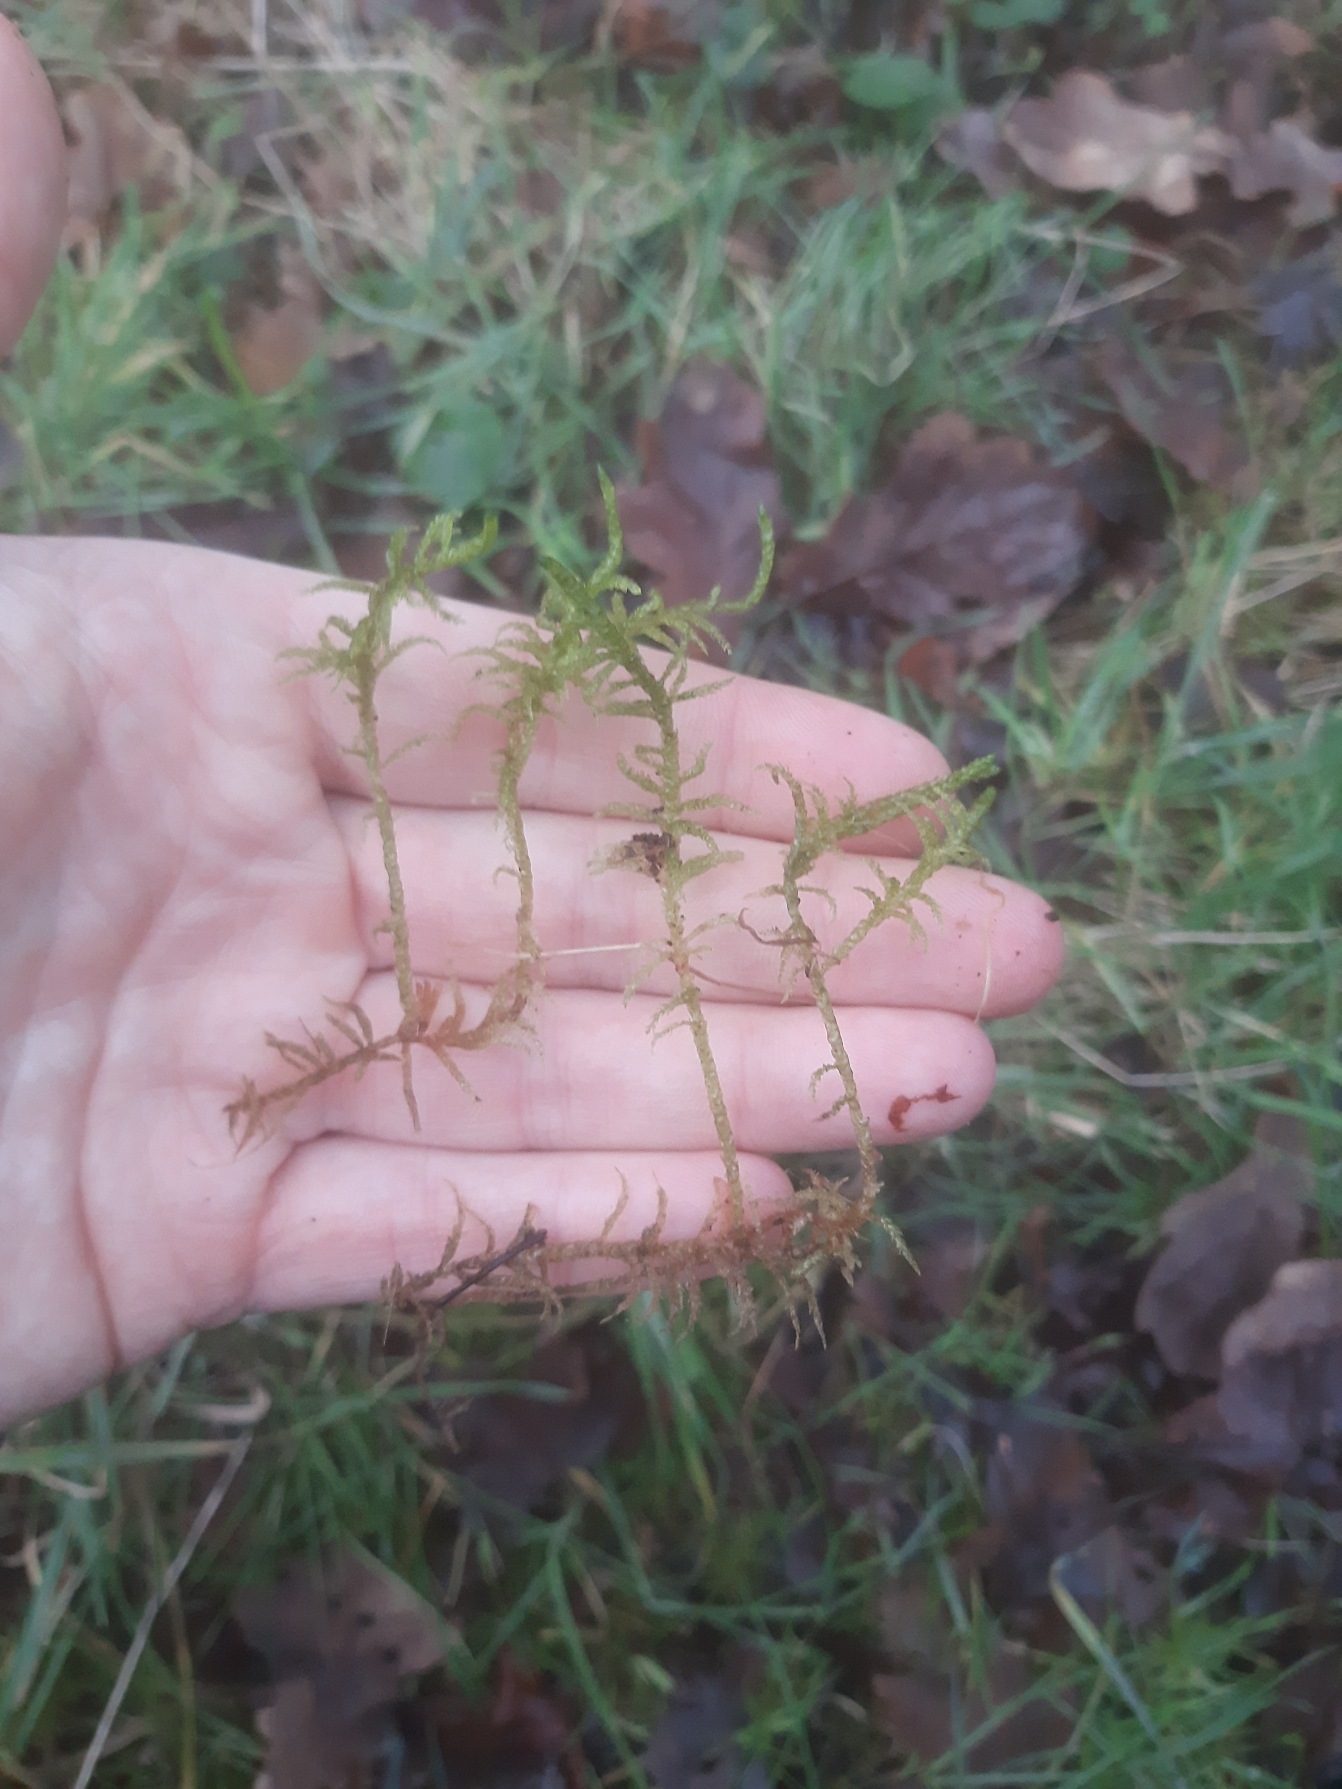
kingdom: Plantae
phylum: Bryophyta
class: Bryopsida
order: Hypnales
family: Brachytheciaceae
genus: Pseudoscleropodium
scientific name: Pseudoscleropodium purum
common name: Hulbladet fedtmos
